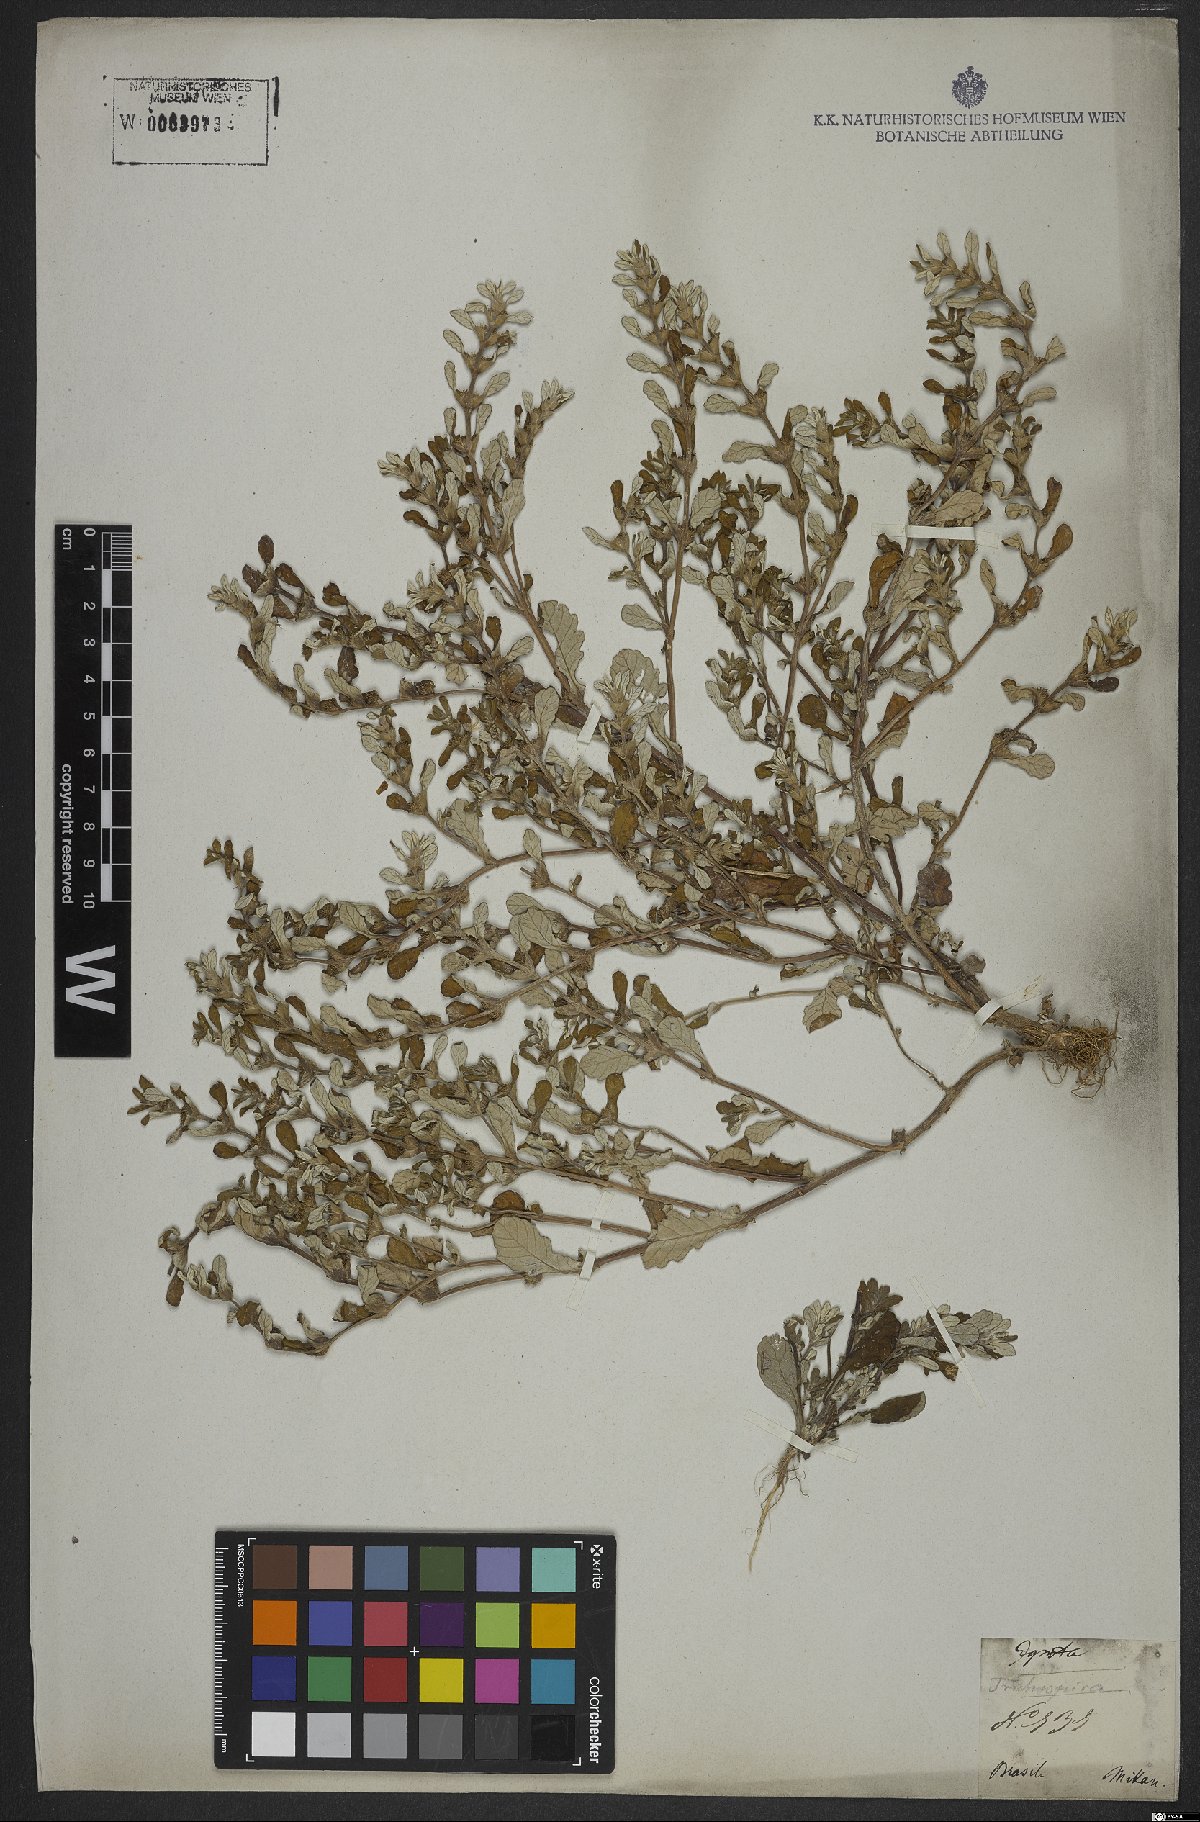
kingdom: Plantae
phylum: Tracheophyta
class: Magnoliopsida
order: Asterales
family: Asteraceae
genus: Trichospira
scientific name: Trichospira
